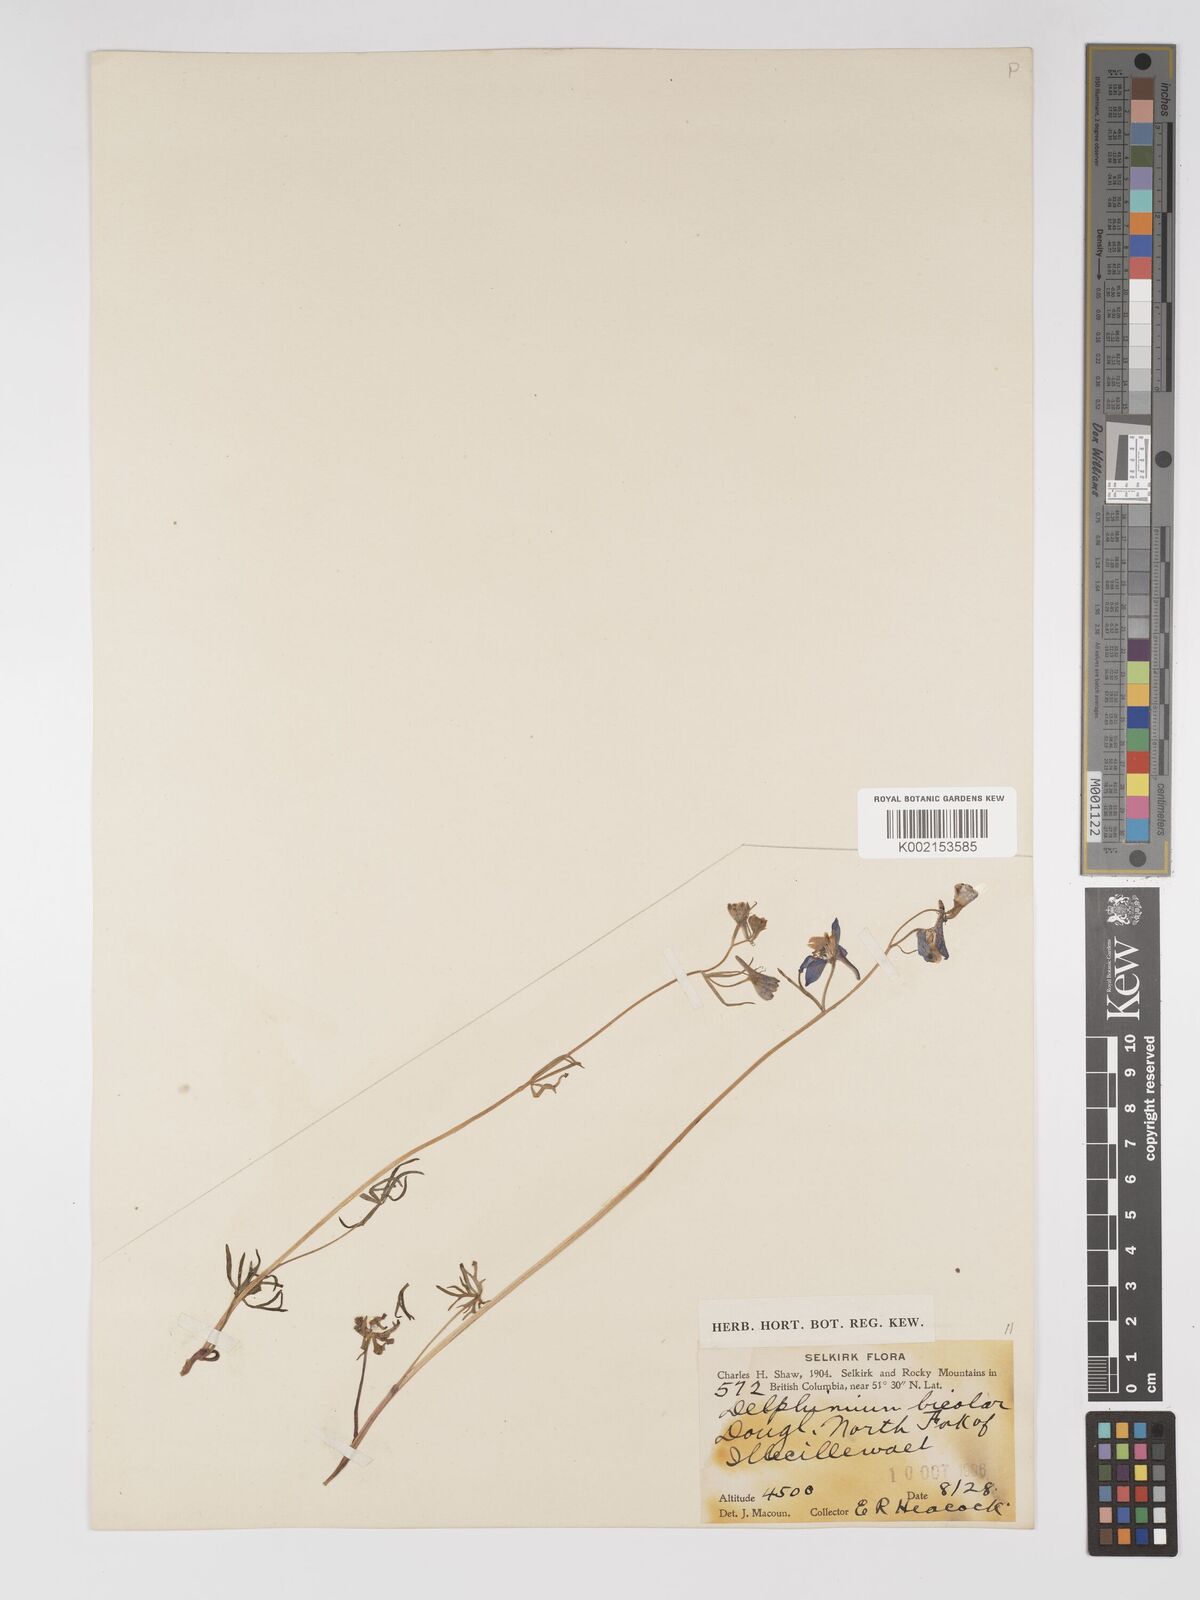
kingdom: Plantae
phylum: Tracheophyta
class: Magnoliopsida
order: Ranunculales
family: Ranunculaceae
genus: Delphinium
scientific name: Delphinium bicolor
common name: Low larkspur
